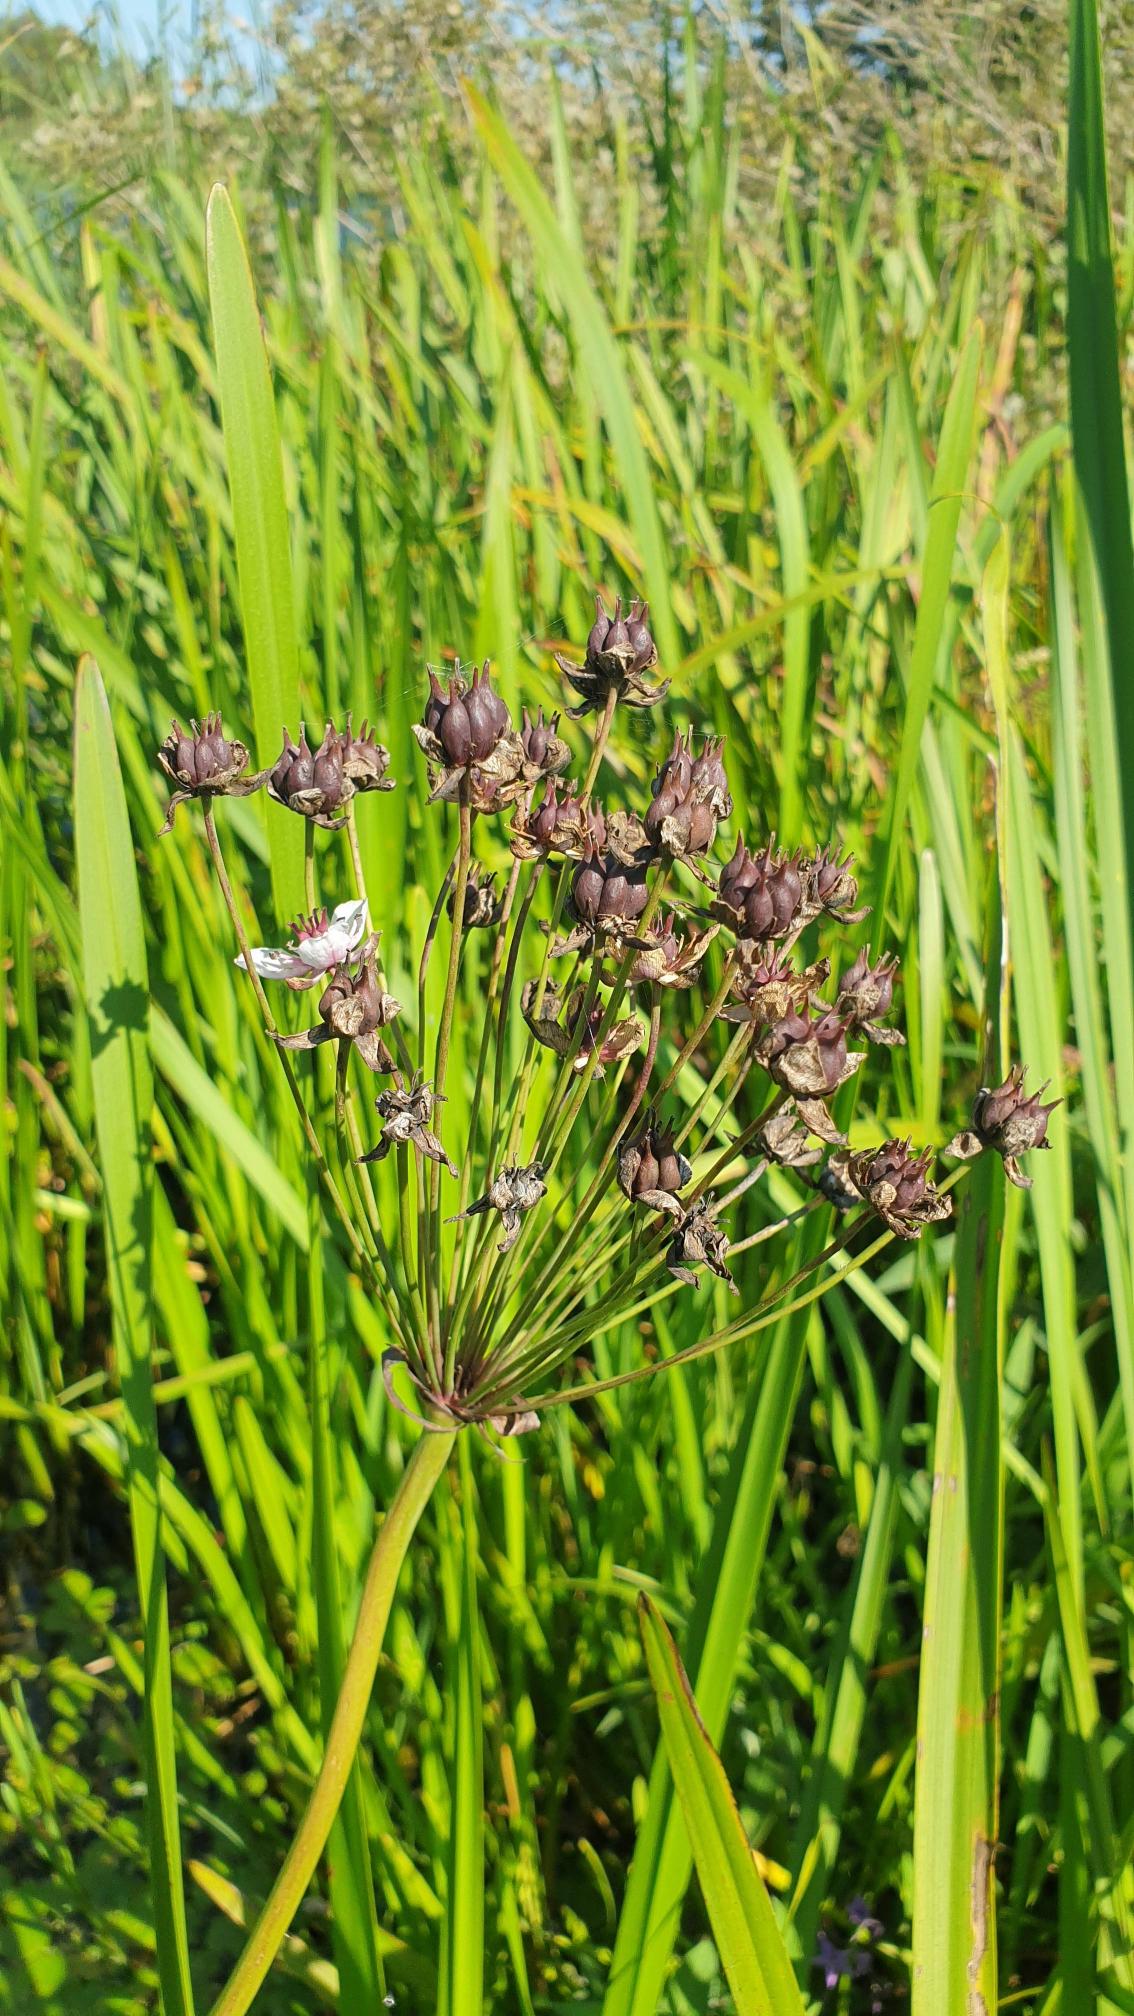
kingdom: Plantae
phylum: Tracheophyta
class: Liliopsida
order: Alismatales
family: Butomaceae
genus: Butomus
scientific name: Butomus umbellatus
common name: Brudelys
